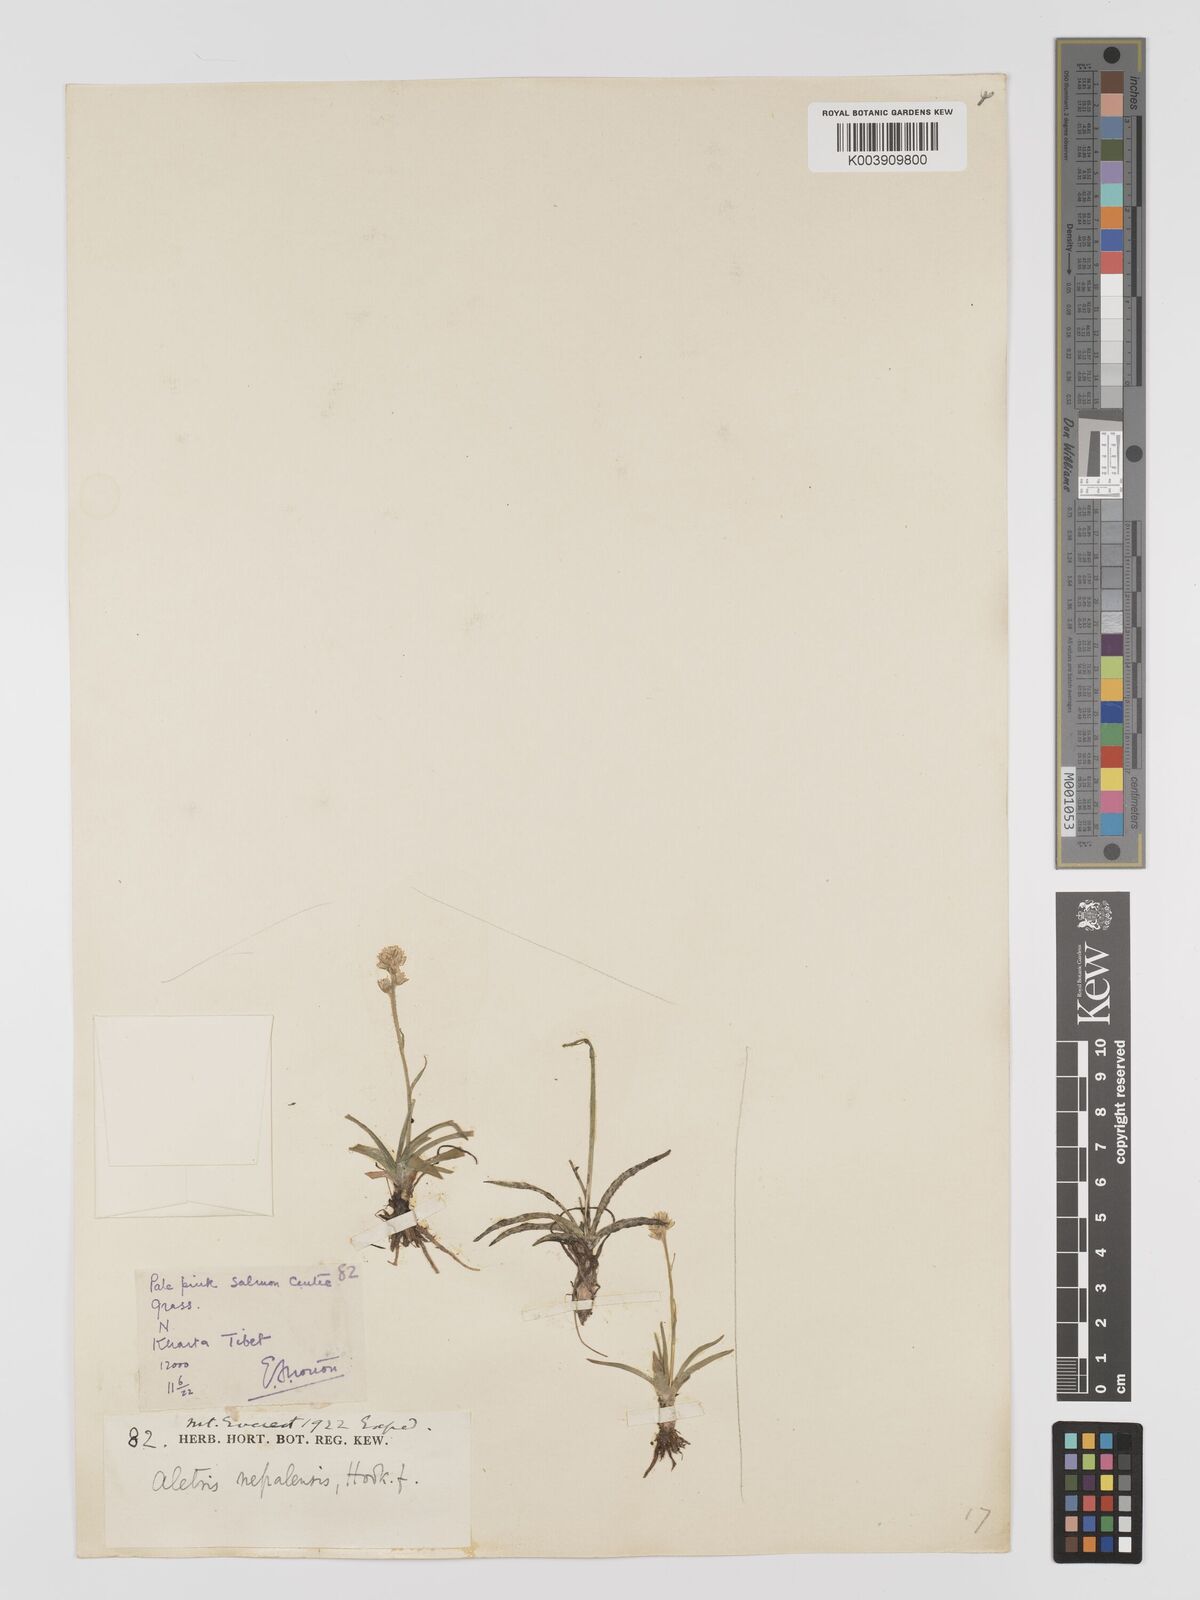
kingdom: Plantae
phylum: Tracheophyta
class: Liliopsida
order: Dioscoreales
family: Nartheciaceae
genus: Aletris
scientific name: Aletris pauciflora
